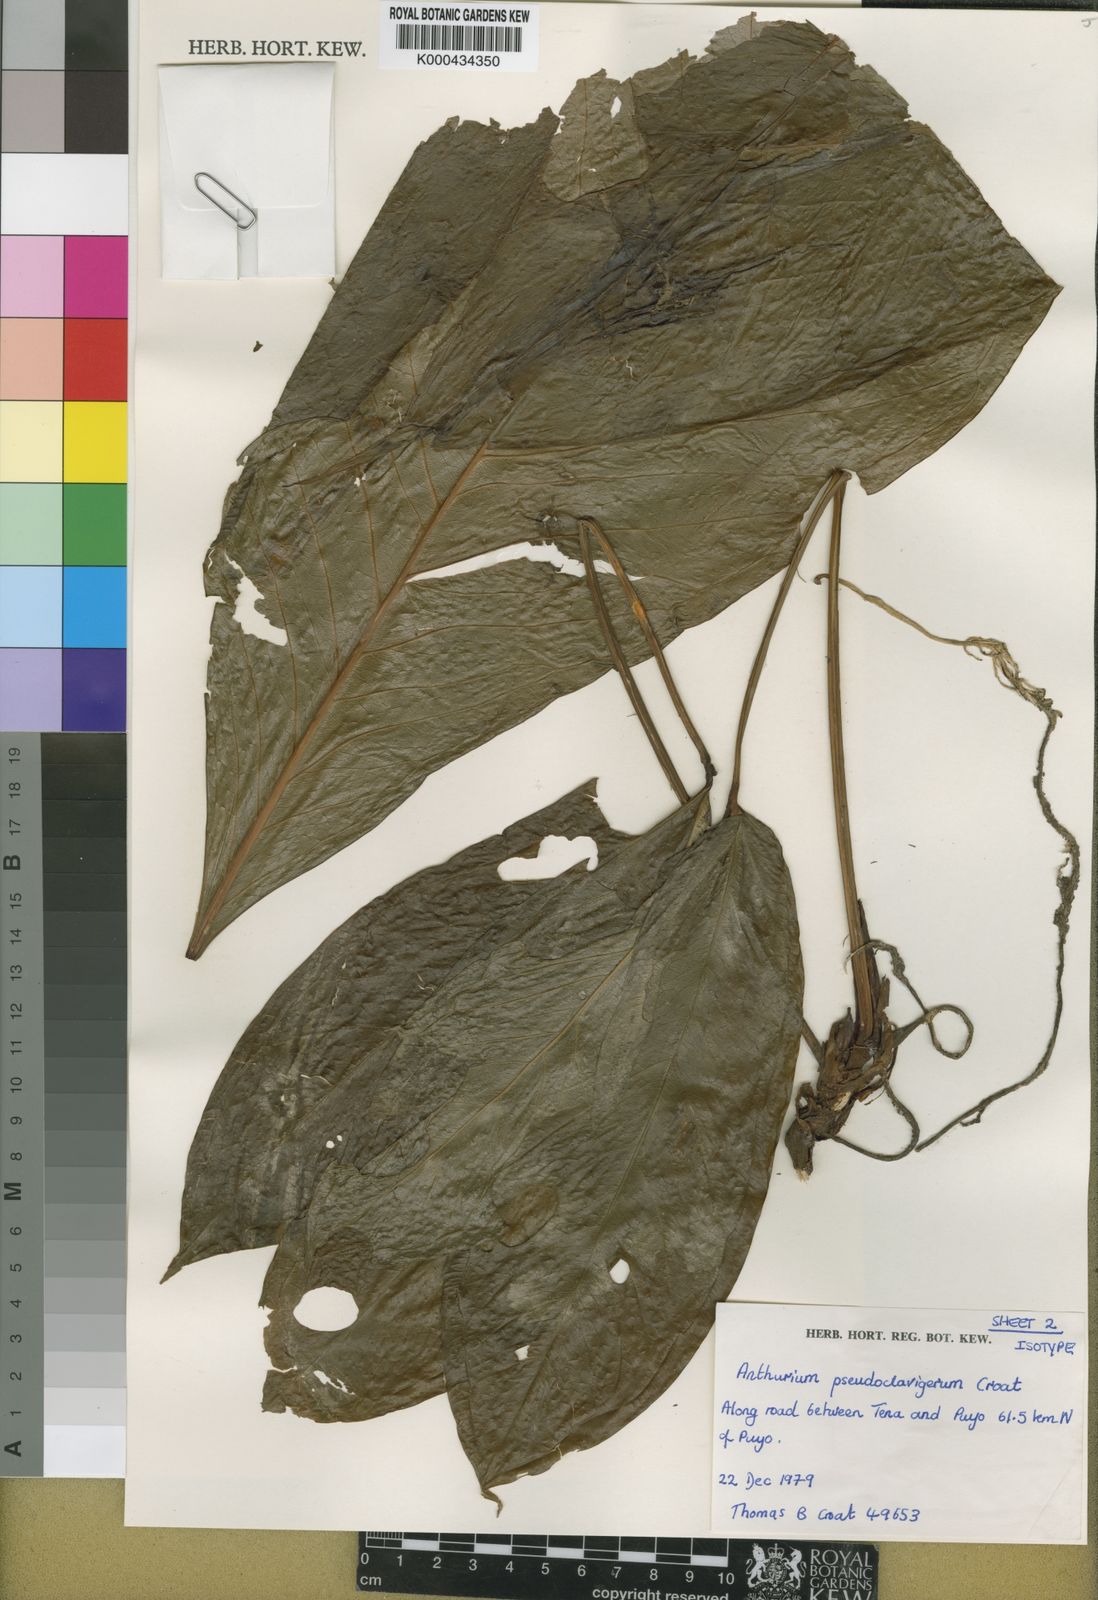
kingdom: Plantae
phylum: Tracheophyta
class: Liliopsida
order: Alismatales
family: Araceae
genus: Anthurium
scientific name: Anthurium
